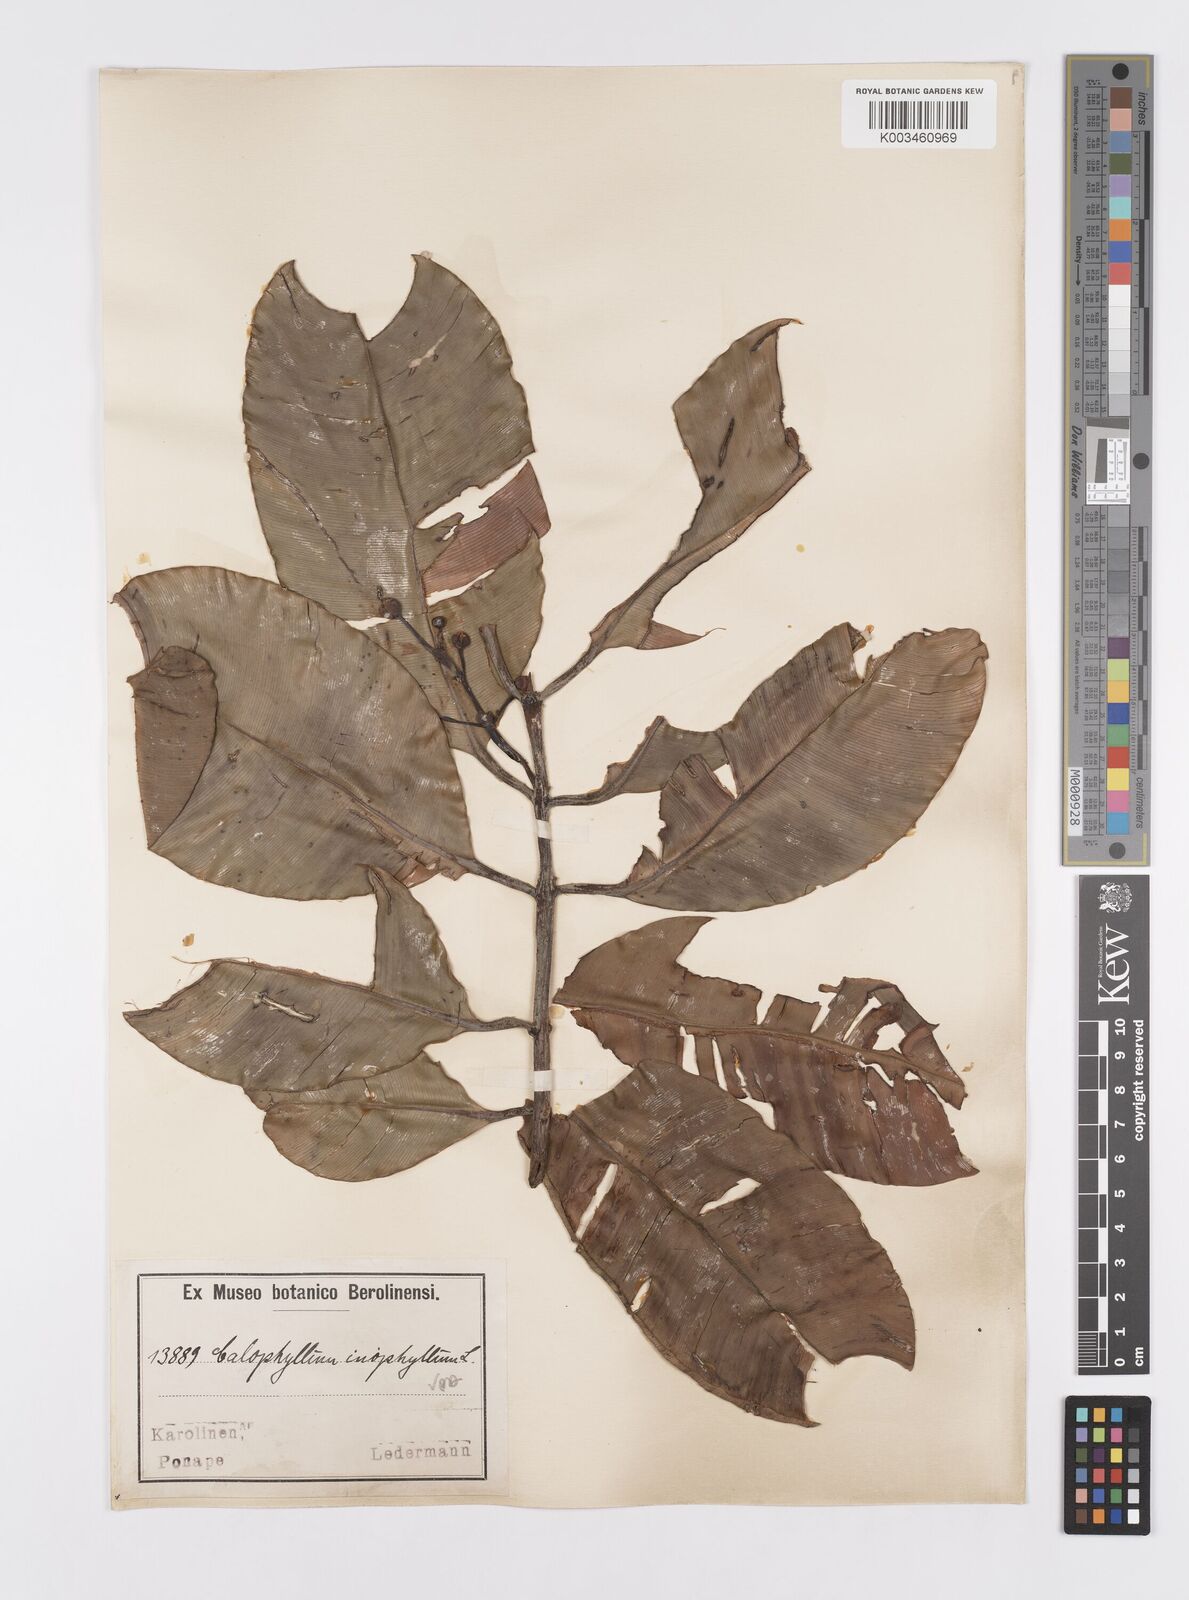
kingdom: Plantae
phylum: Tracheophyta
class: Magnoliopsida
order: Malpighiales
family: Calophyllaceae
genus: Calophyllum
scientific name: Calophyllum inophyllum
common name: Alexandrian laurel
